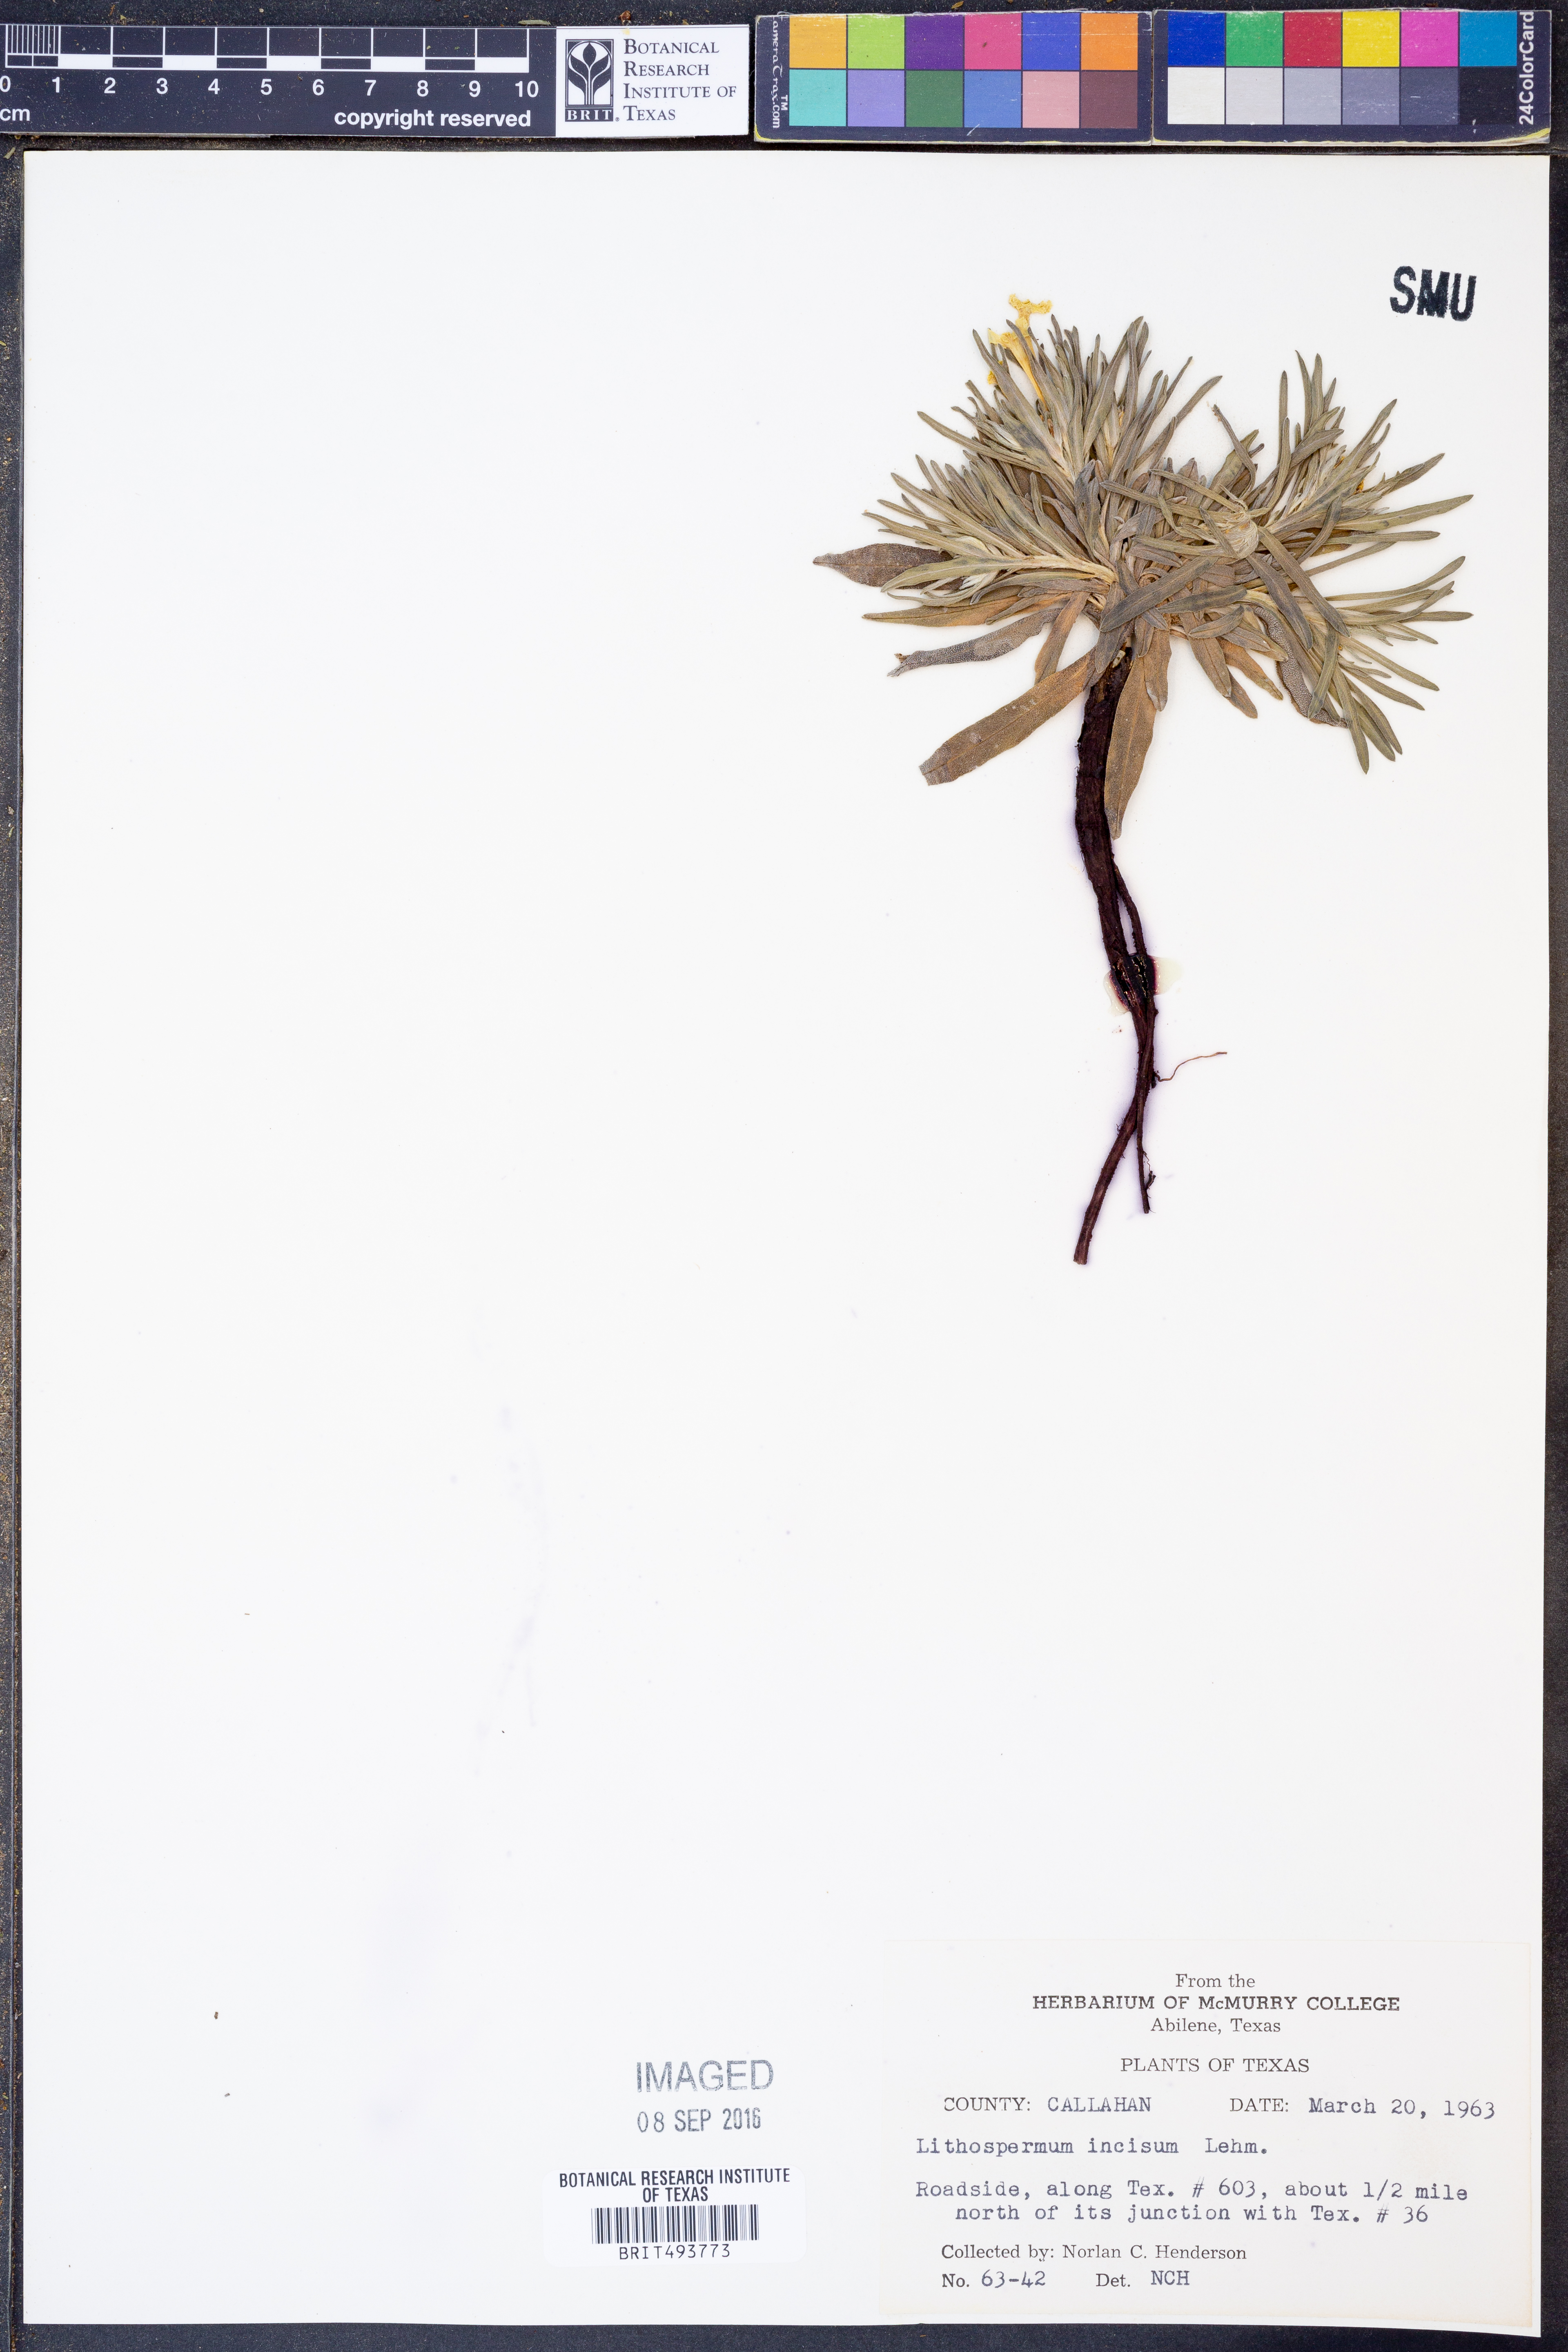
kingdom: Plantae
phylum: Tracheophyta
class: Magnoliopsida
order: Boraginales
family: Boraginaceae
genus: Lithospermum
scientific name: Lithospermum incisum
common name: Fringed gromwell
